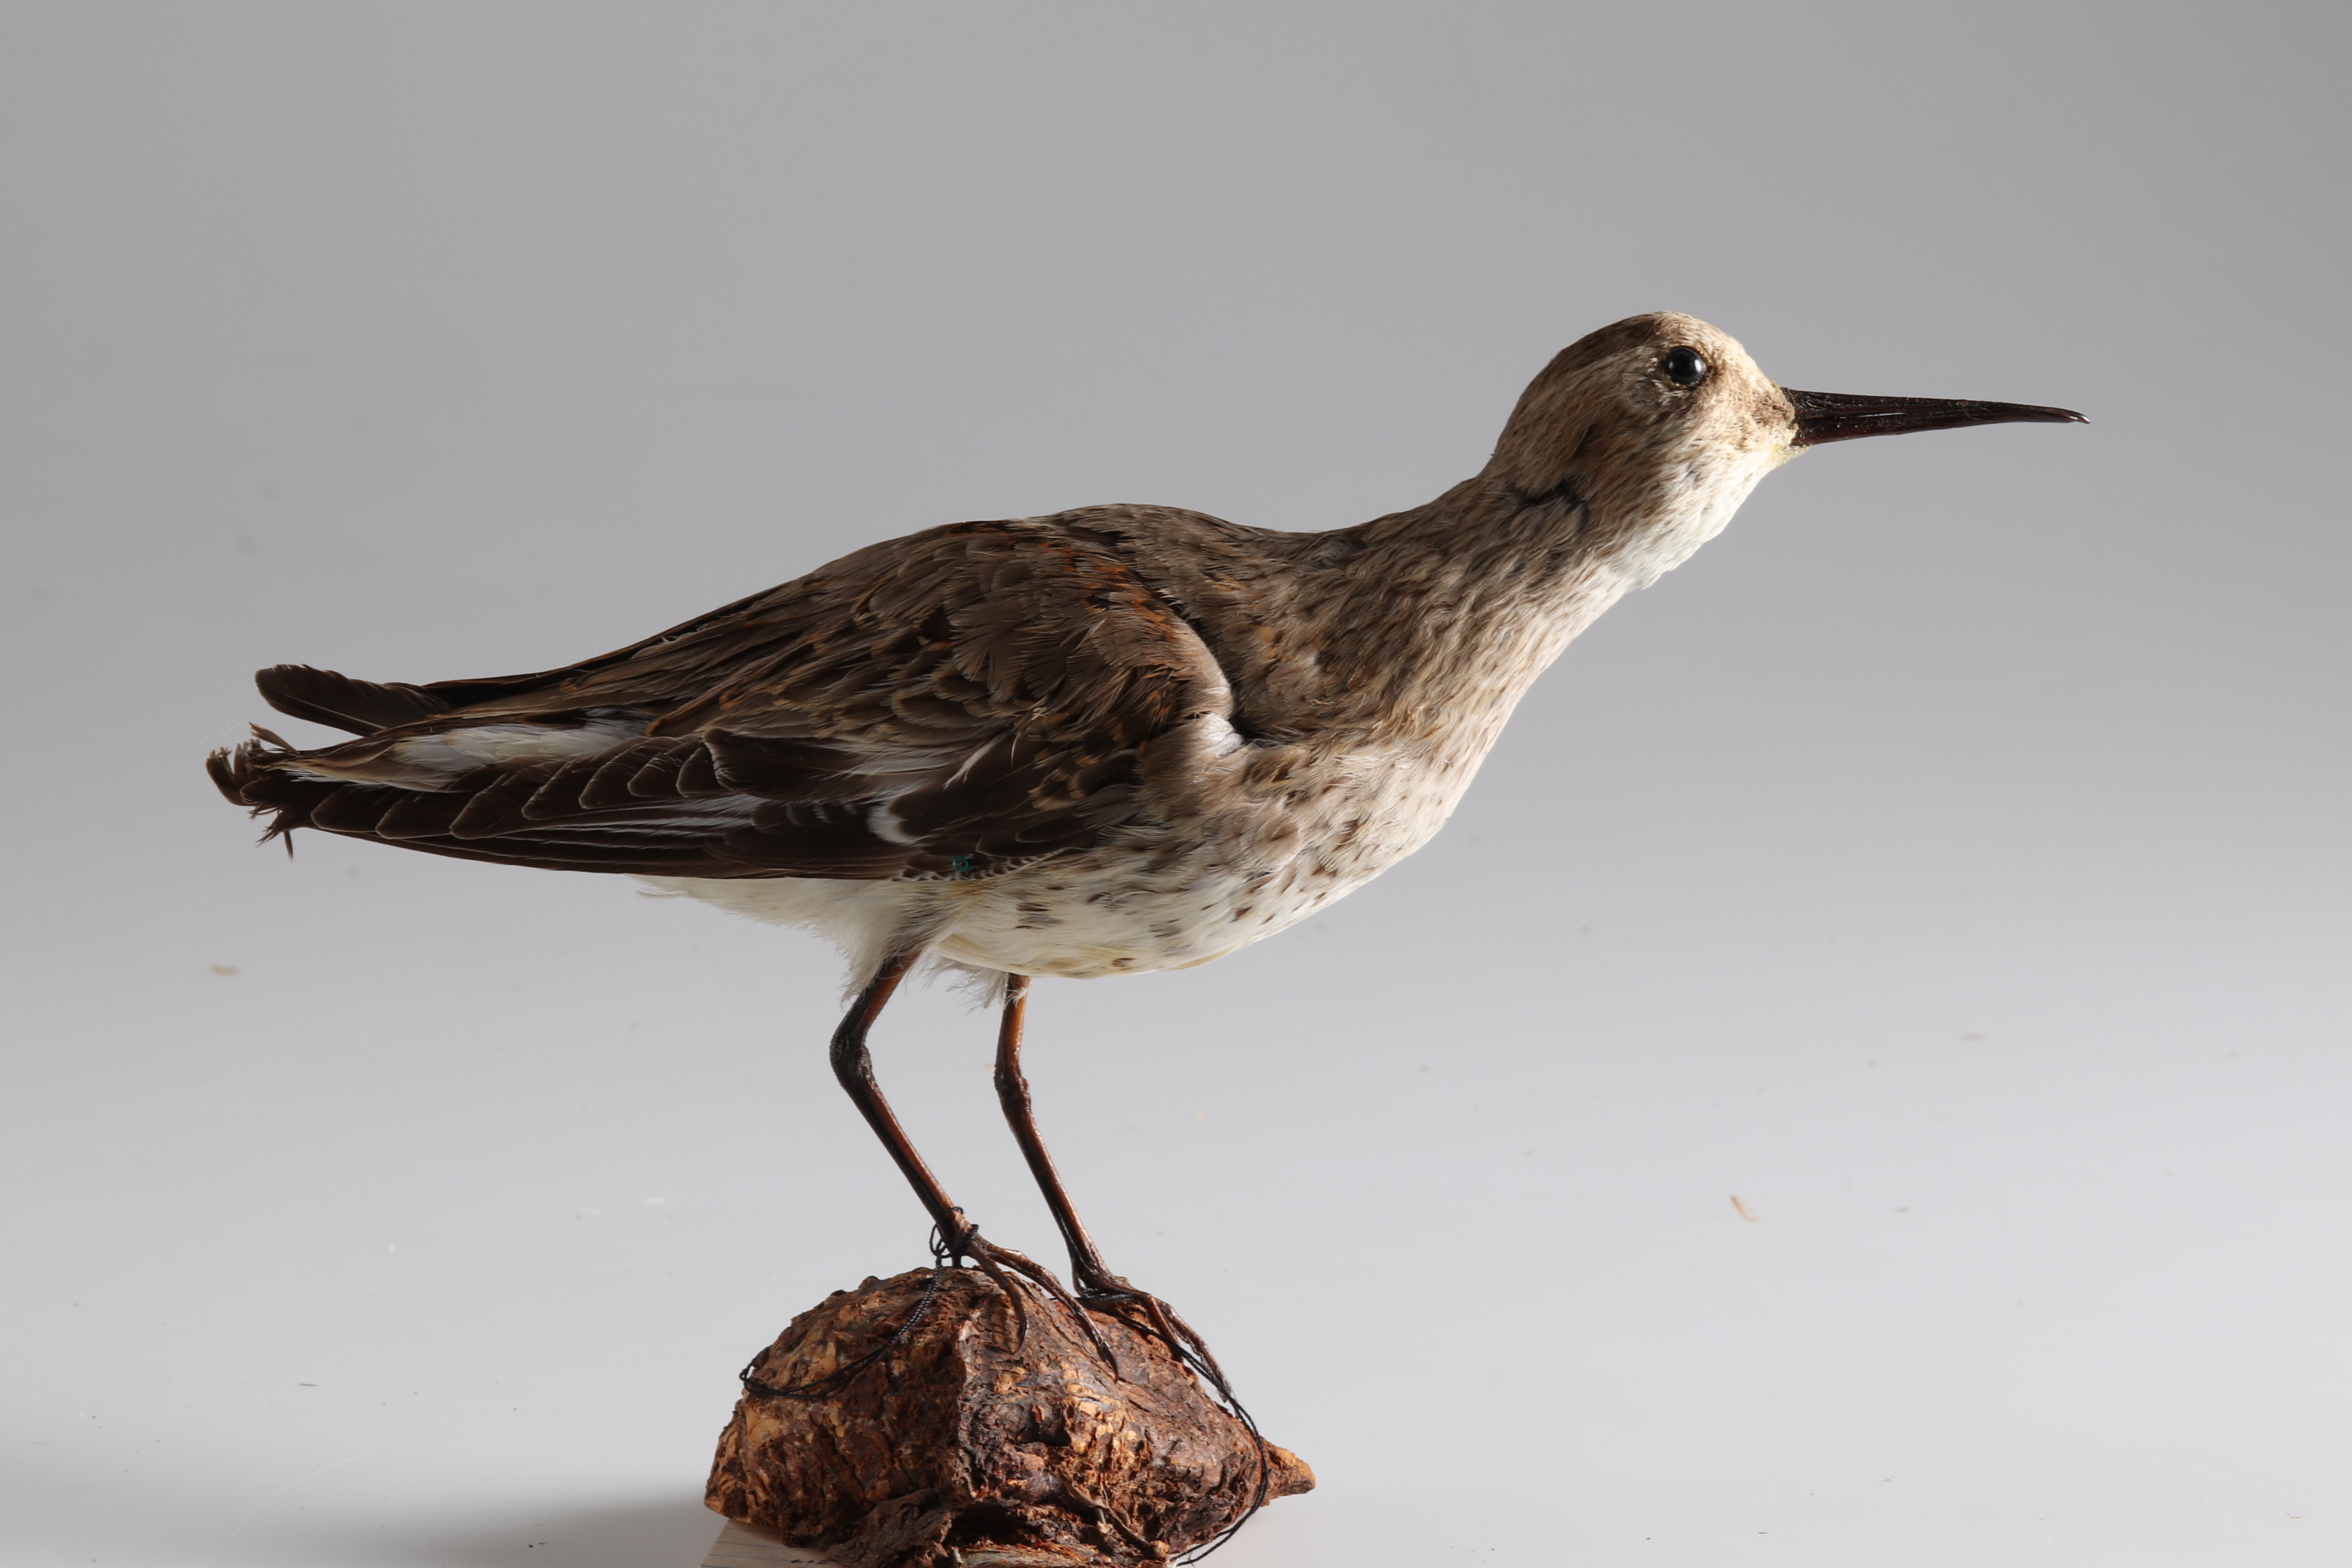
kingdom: Animalia
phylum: Chordata
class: Aves
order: Charadriiformes
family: Scolopacidae
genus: Calidris
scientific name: Calidris alpina
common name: Dunlin
